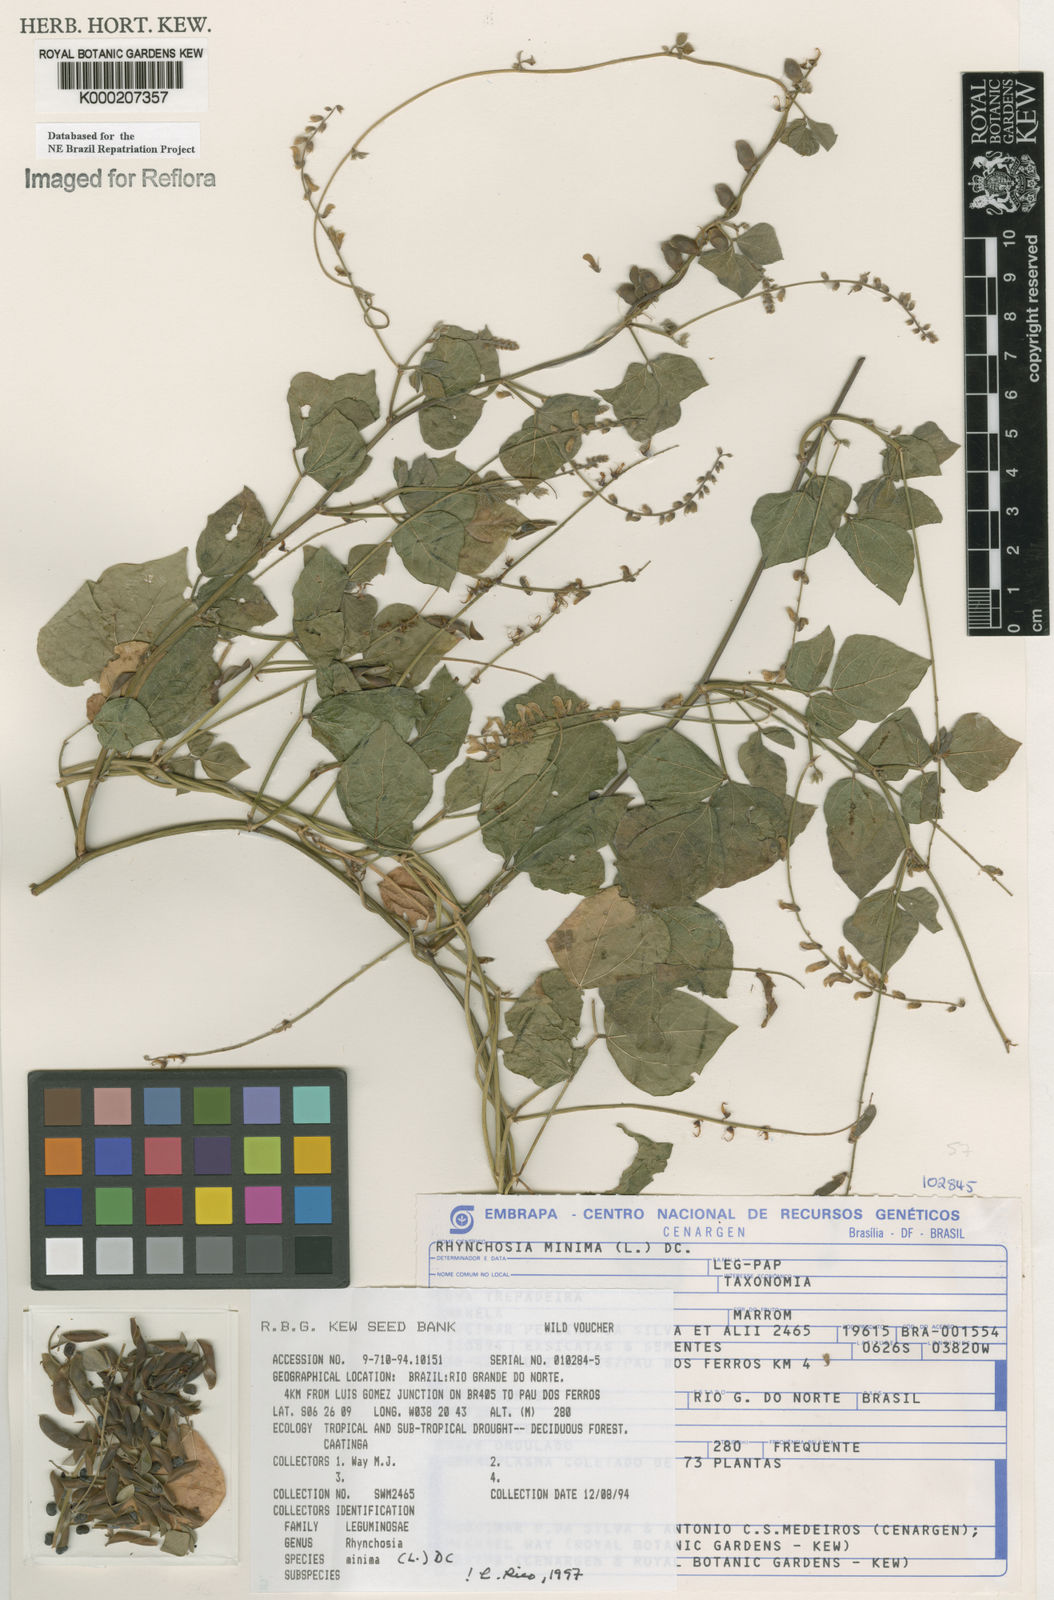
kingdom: Plantae
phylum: Tracheophyta
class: Magnoliopsida
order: Fabales
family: Fabaceae
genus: Rhynchosia
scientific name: Rhynchosia minima
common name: Least snoutbean
